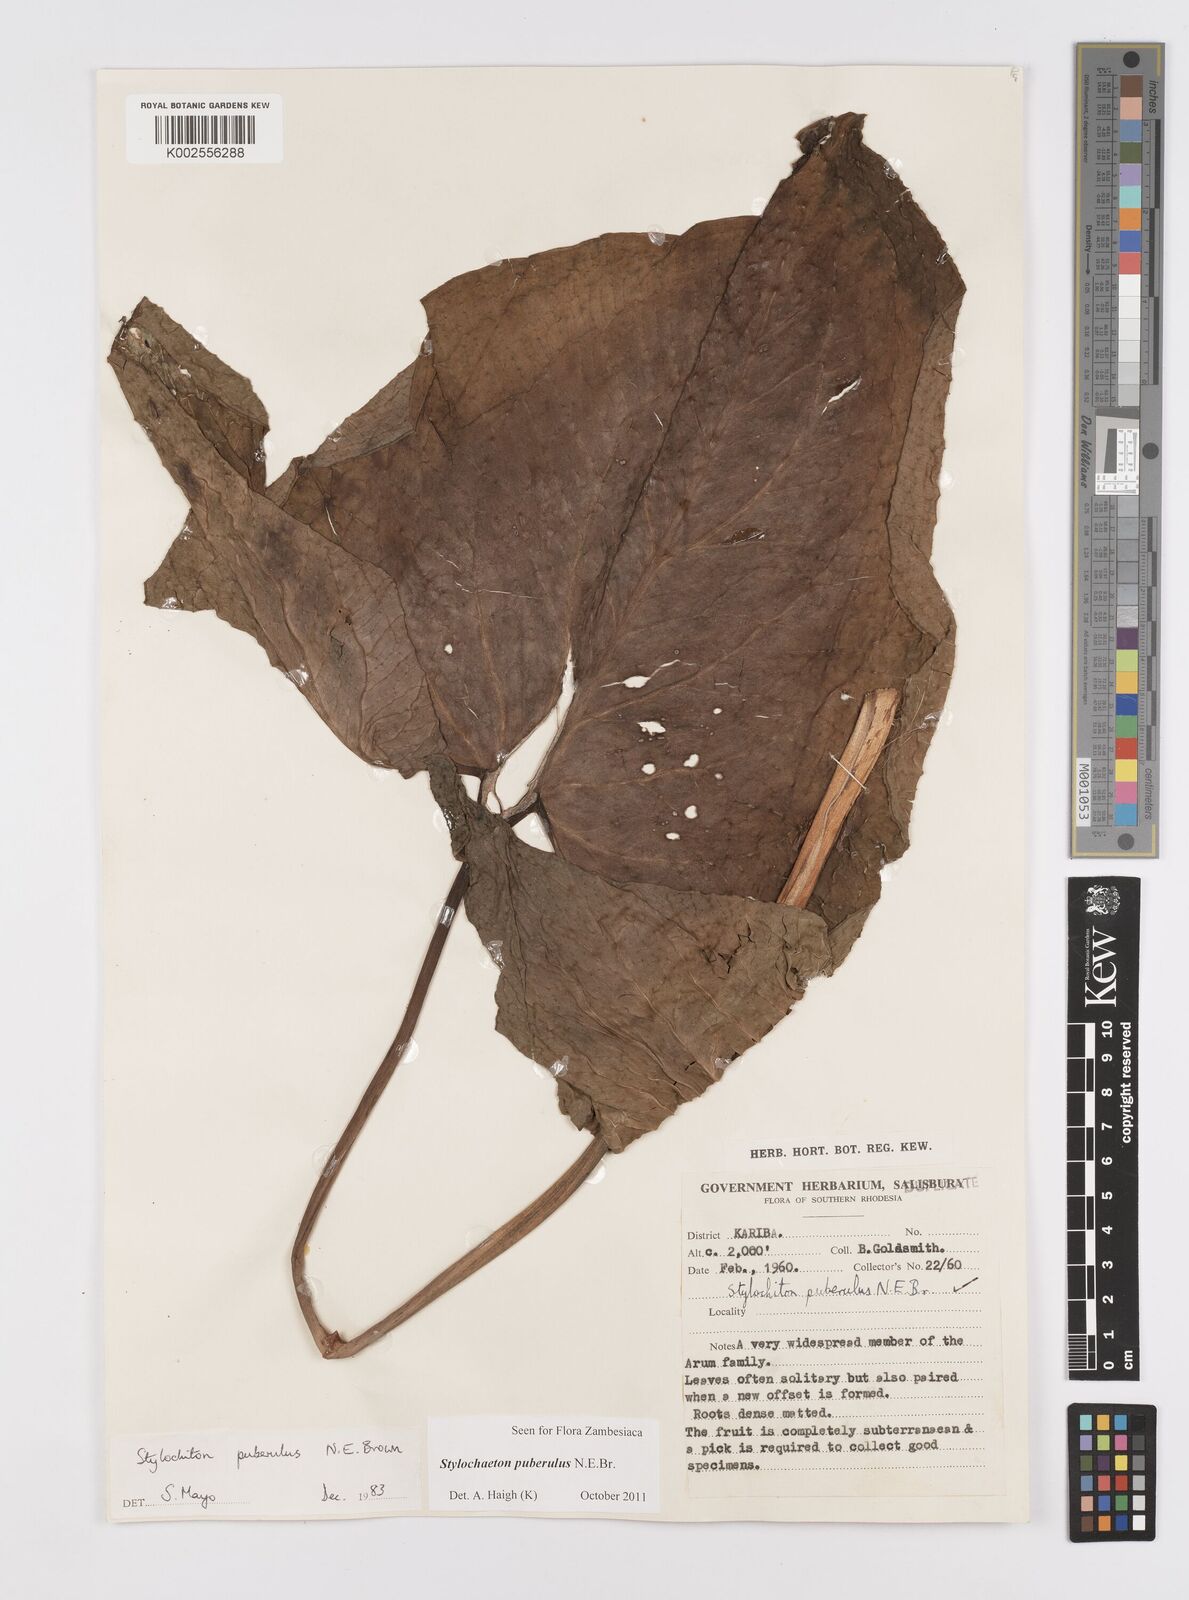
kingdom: Plantae
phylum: Tracheophyta
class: Liliopsida
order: Alismatales
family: Araceae
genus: Stylochaeton
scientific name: Stylochaeton puberulum
